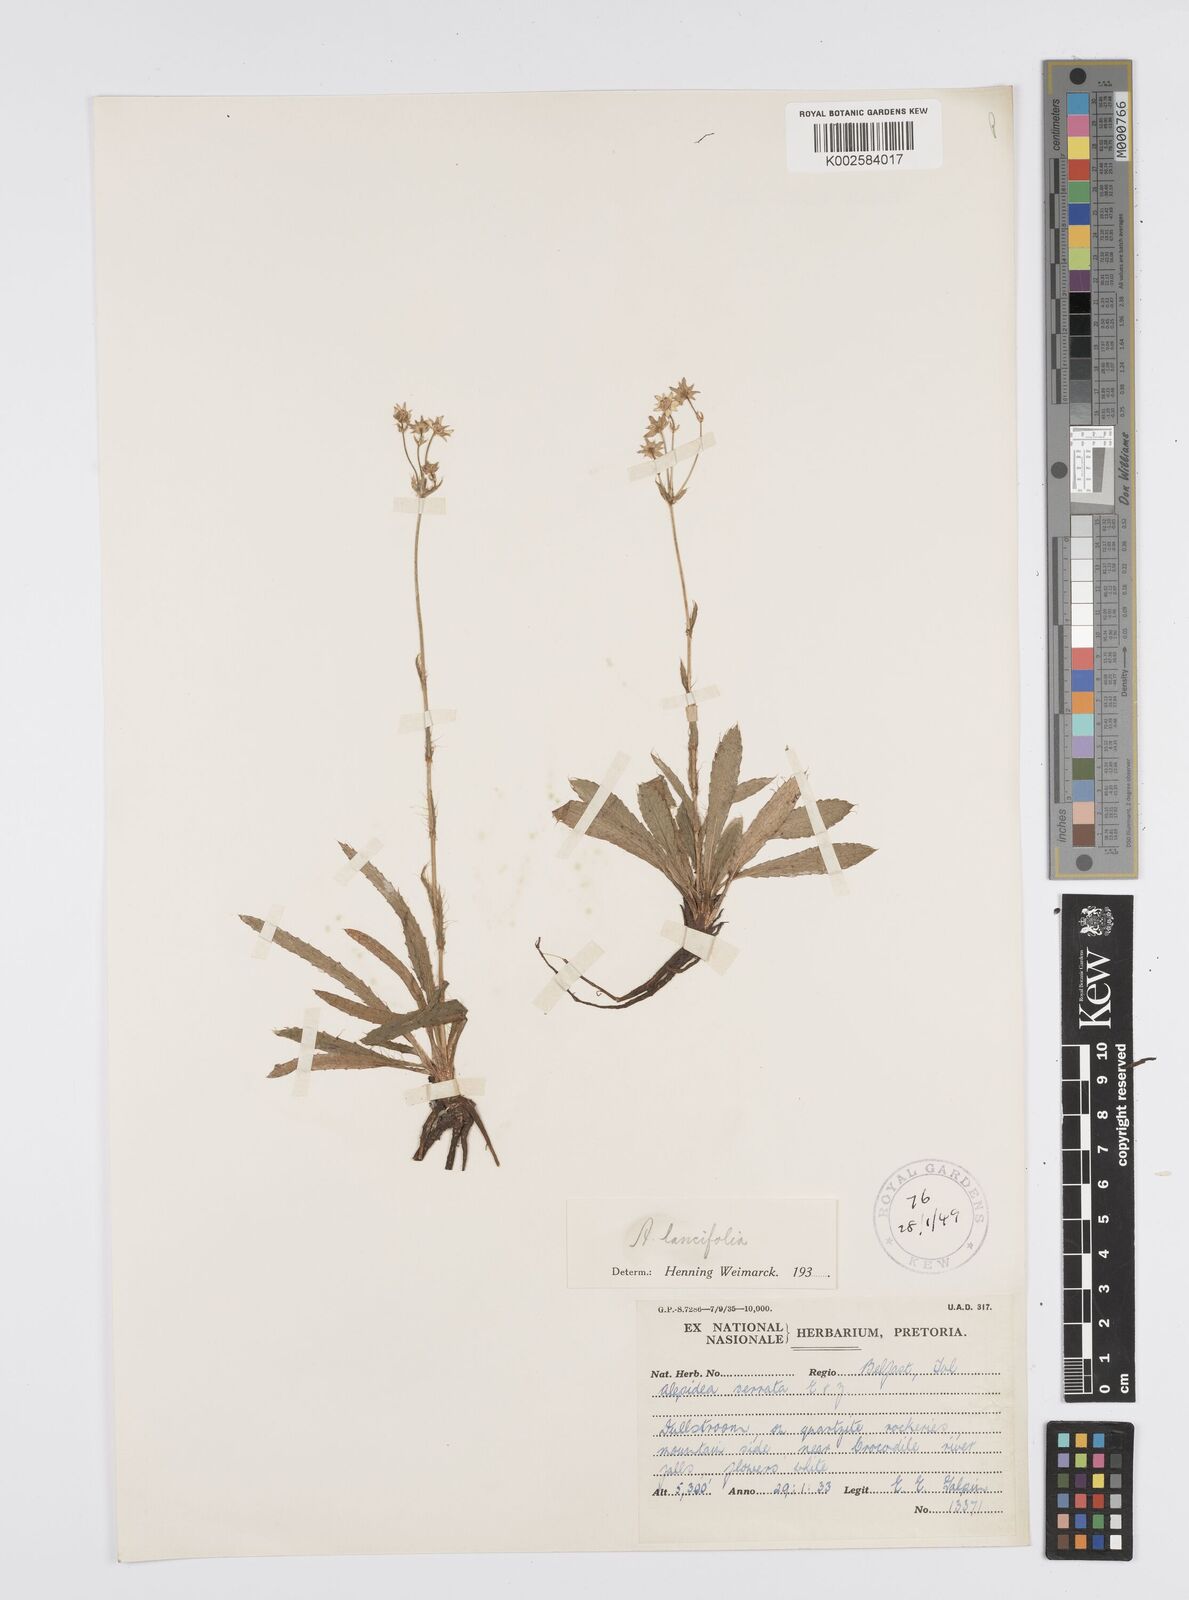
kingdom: Plantae
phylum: Tracheophyta
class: Magnoliopsida
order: Apiales
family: Apiaceae
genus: Alepidea
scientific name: Alepidea
